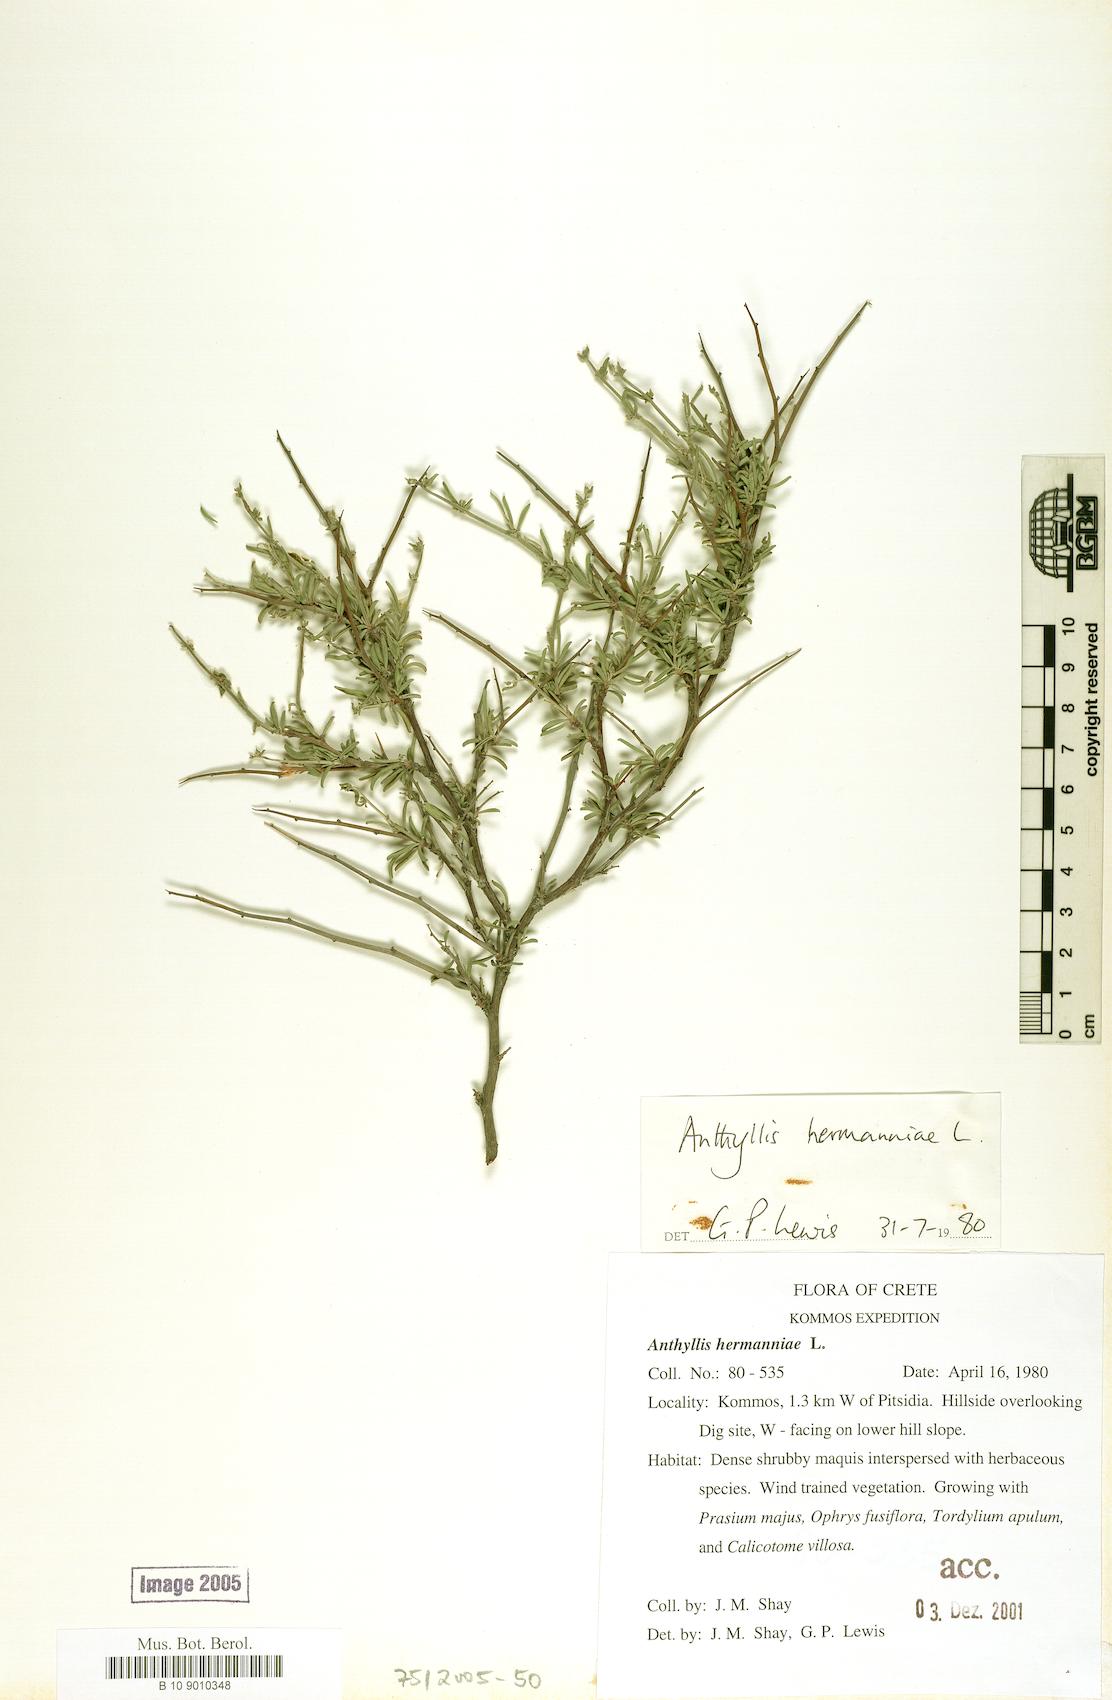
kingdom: Plantae
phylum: Tracheophyta
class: Magnoliopsida
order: Fabales
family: Fabaceae
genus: Anthyllis
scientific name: Anthyllis hermanniae
